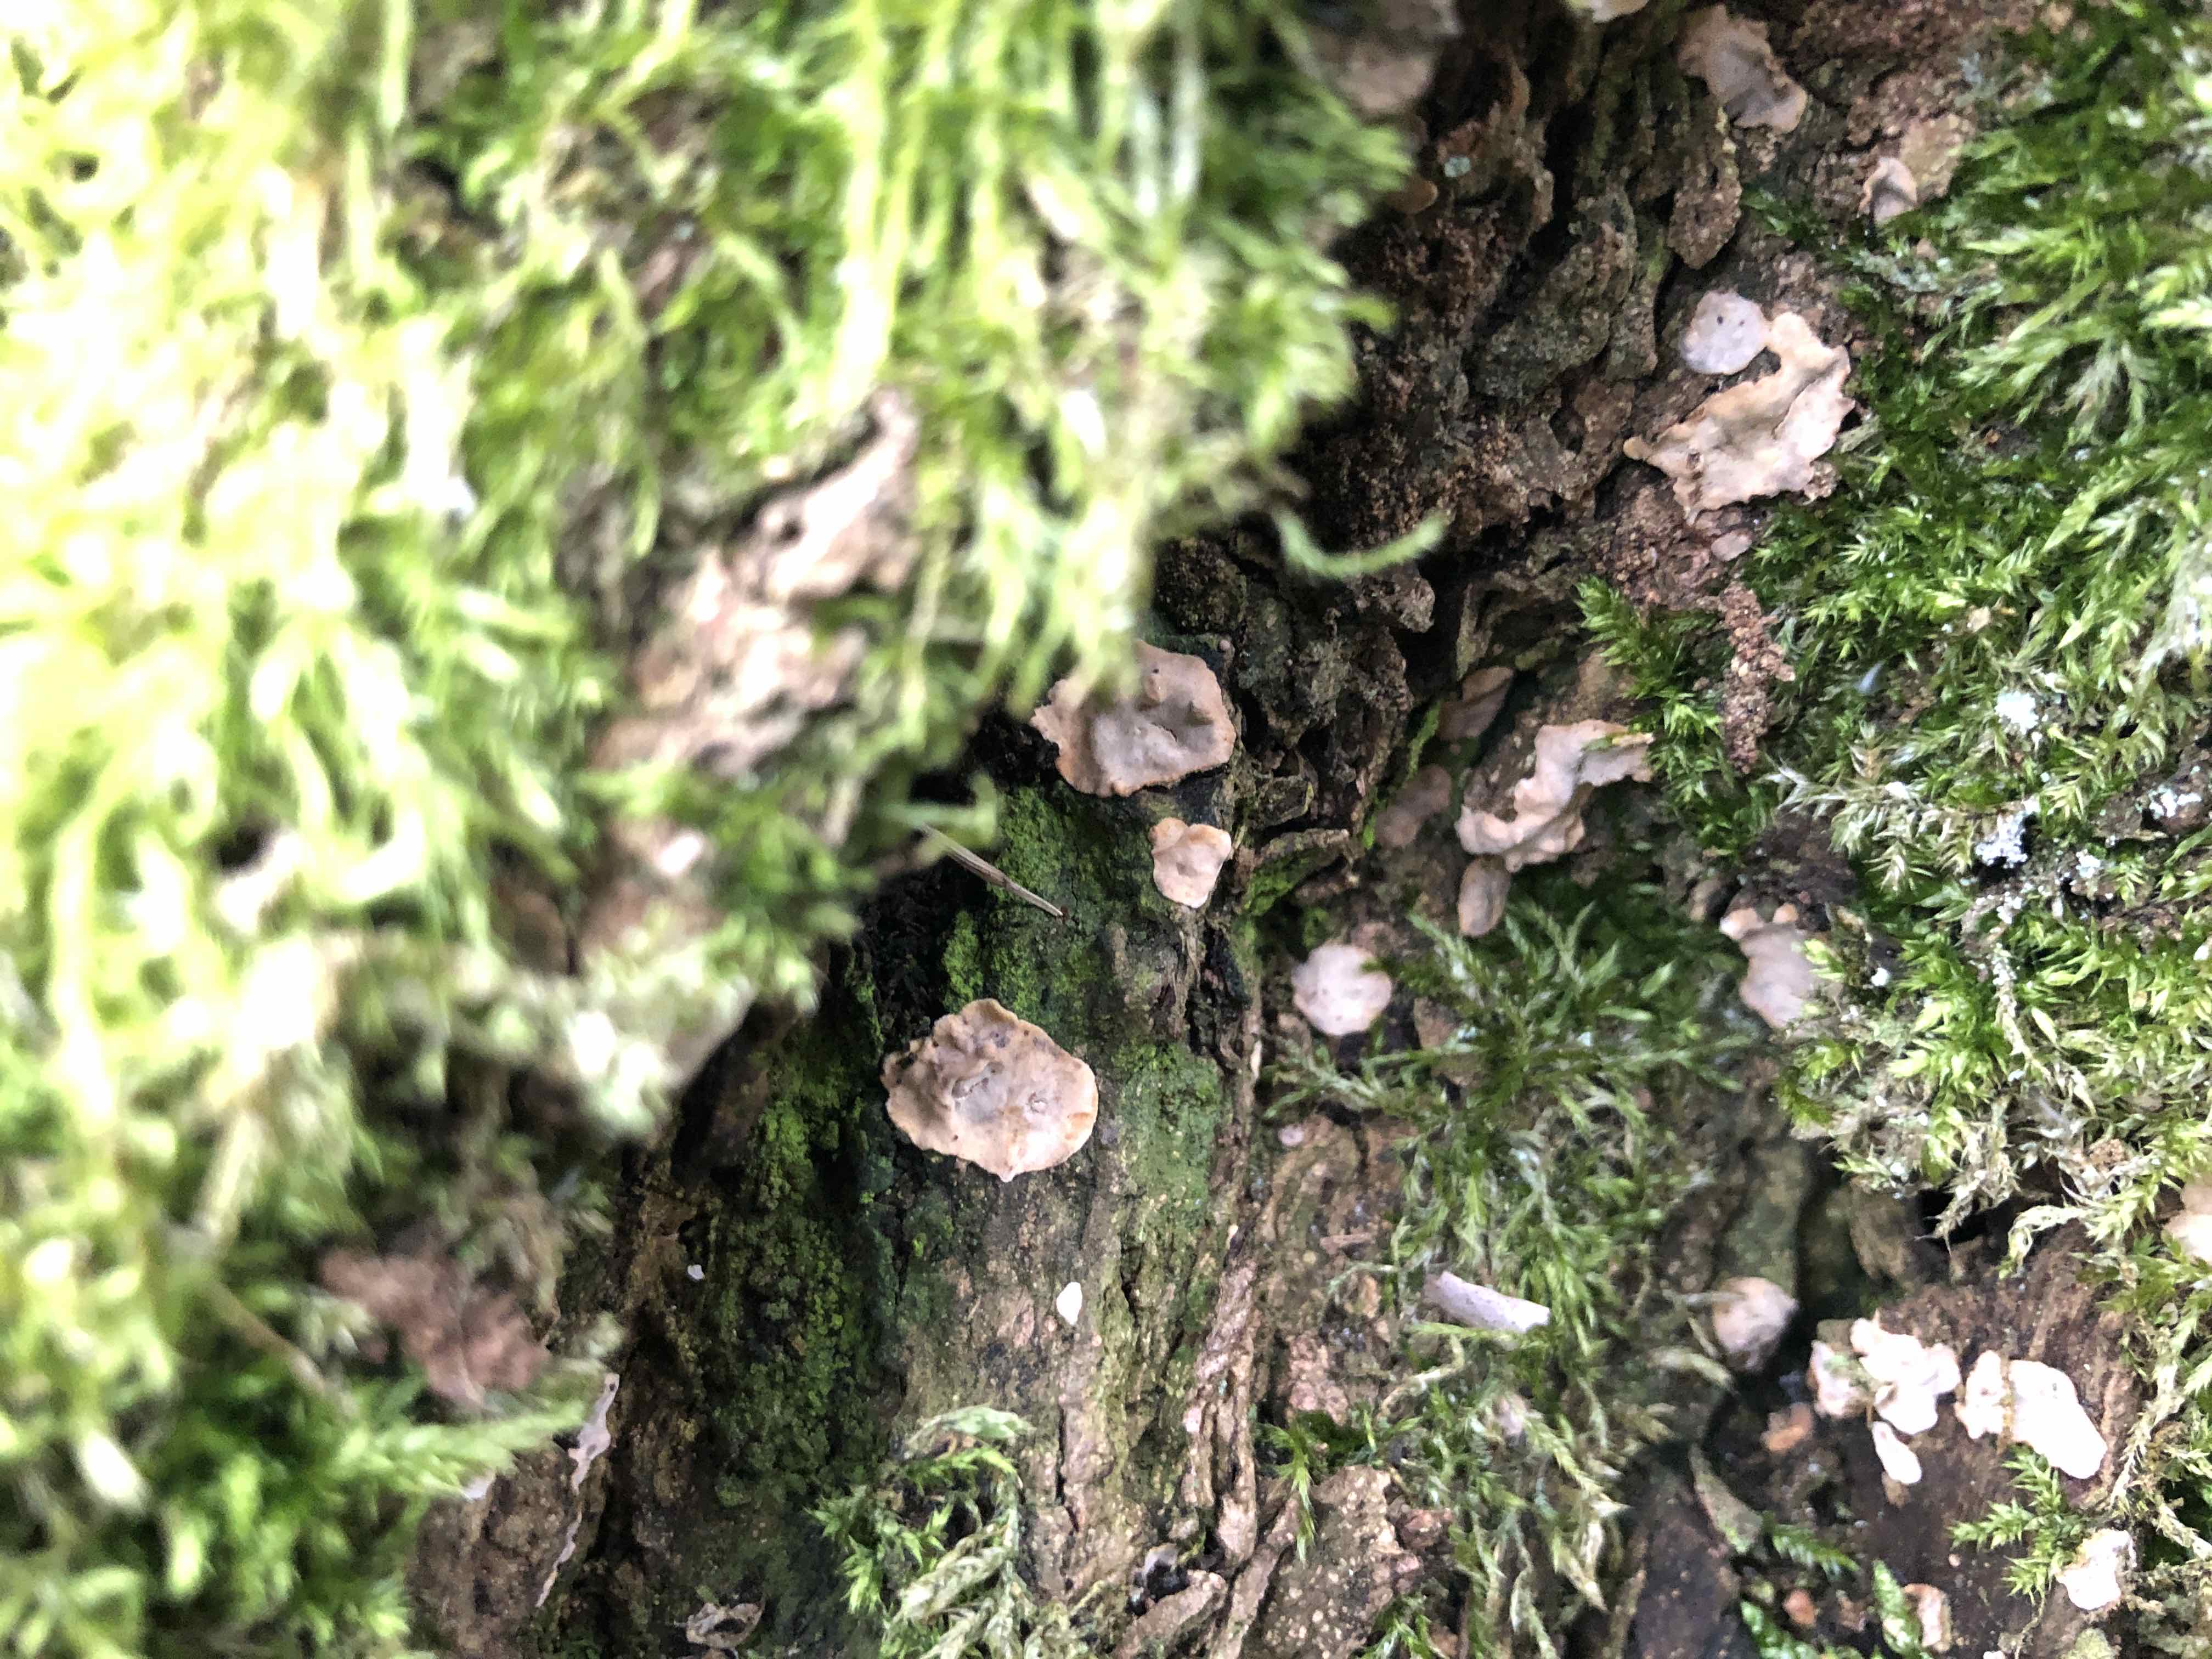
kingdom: Fungi
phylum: Basidiomycota
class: Agaricomycetes
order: Russulales
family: Stereaceae
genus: Stereum
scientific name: Stereum rugosum
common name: rynket lædersvamp
